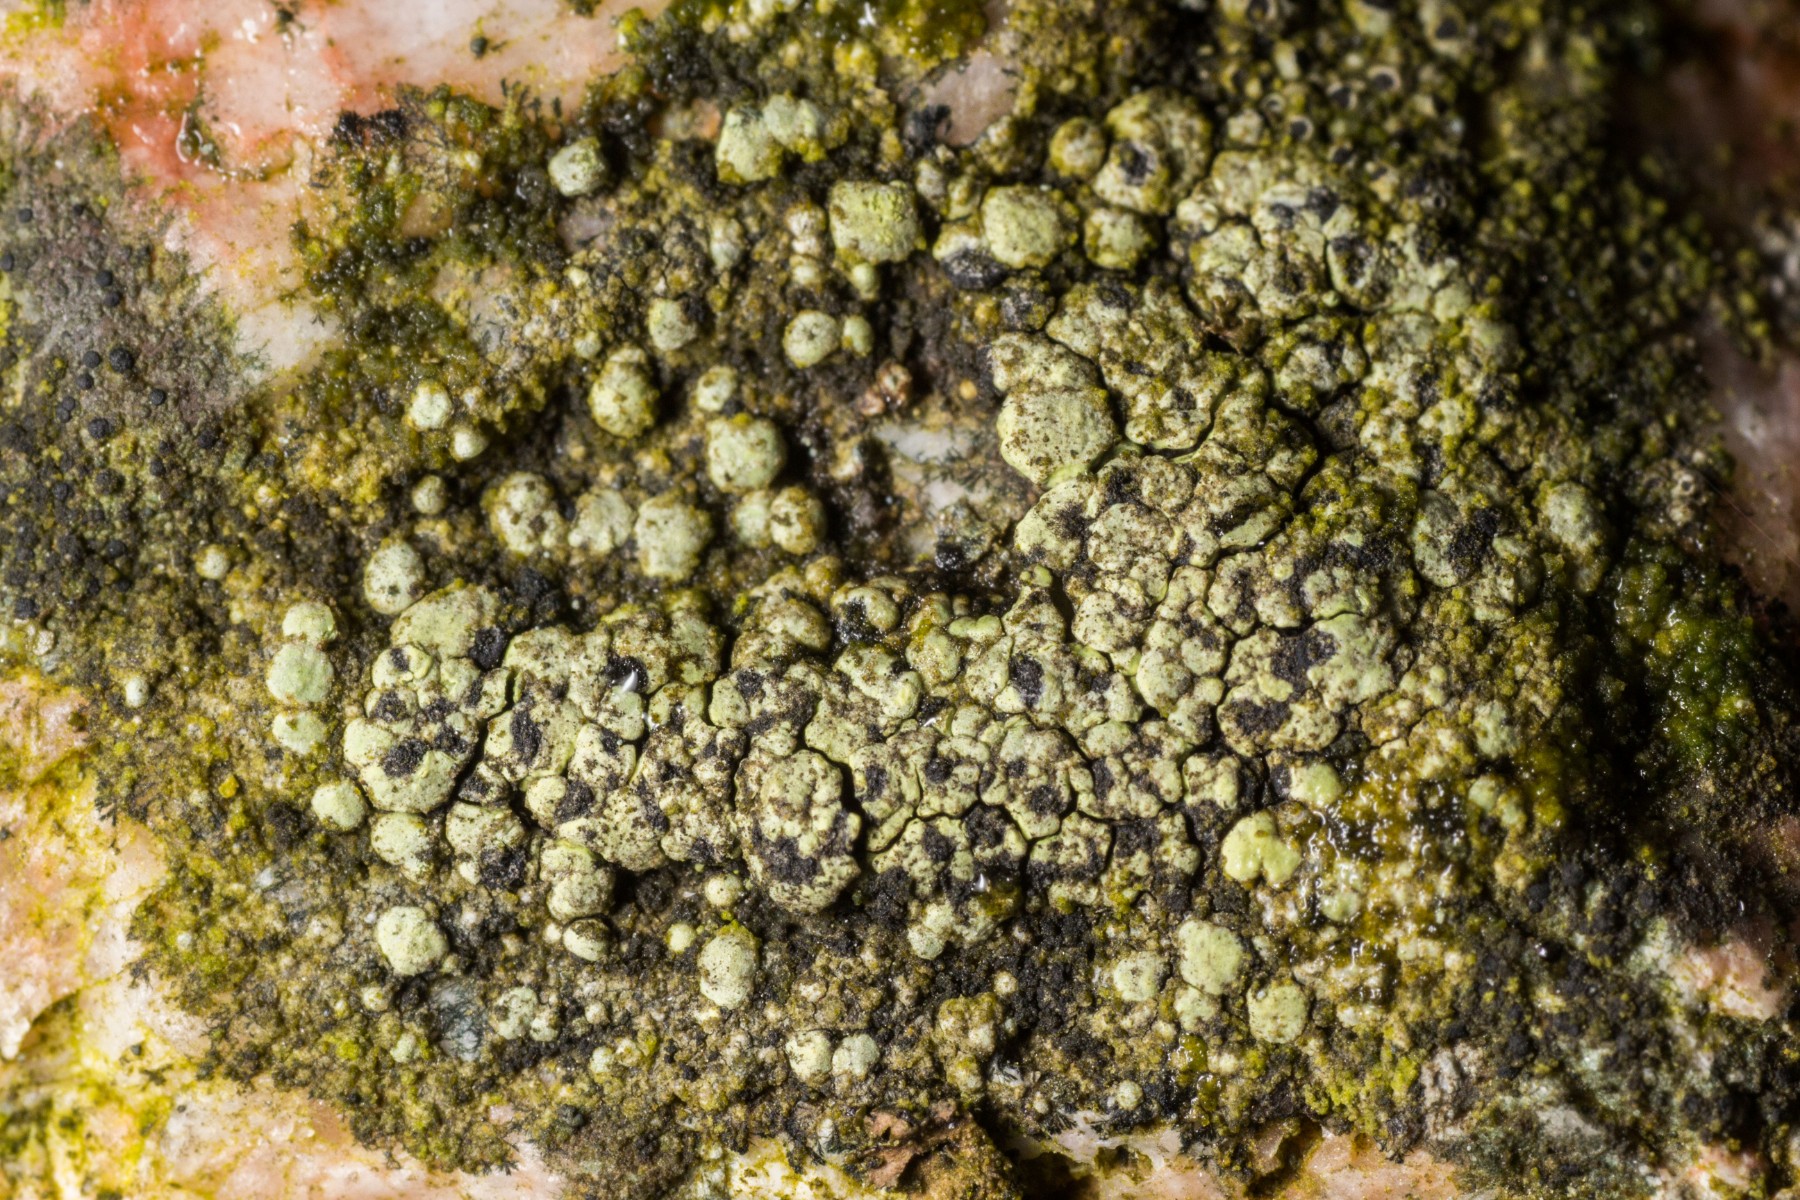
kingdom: Fungi
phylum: Ascomycota
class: Lecanoromycetes
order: Rhizocarpales
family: Rhizocarpaceae
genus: Rhizocarpon
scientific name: Rhizocarpon lecanorinum
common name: krave-landkortlav
